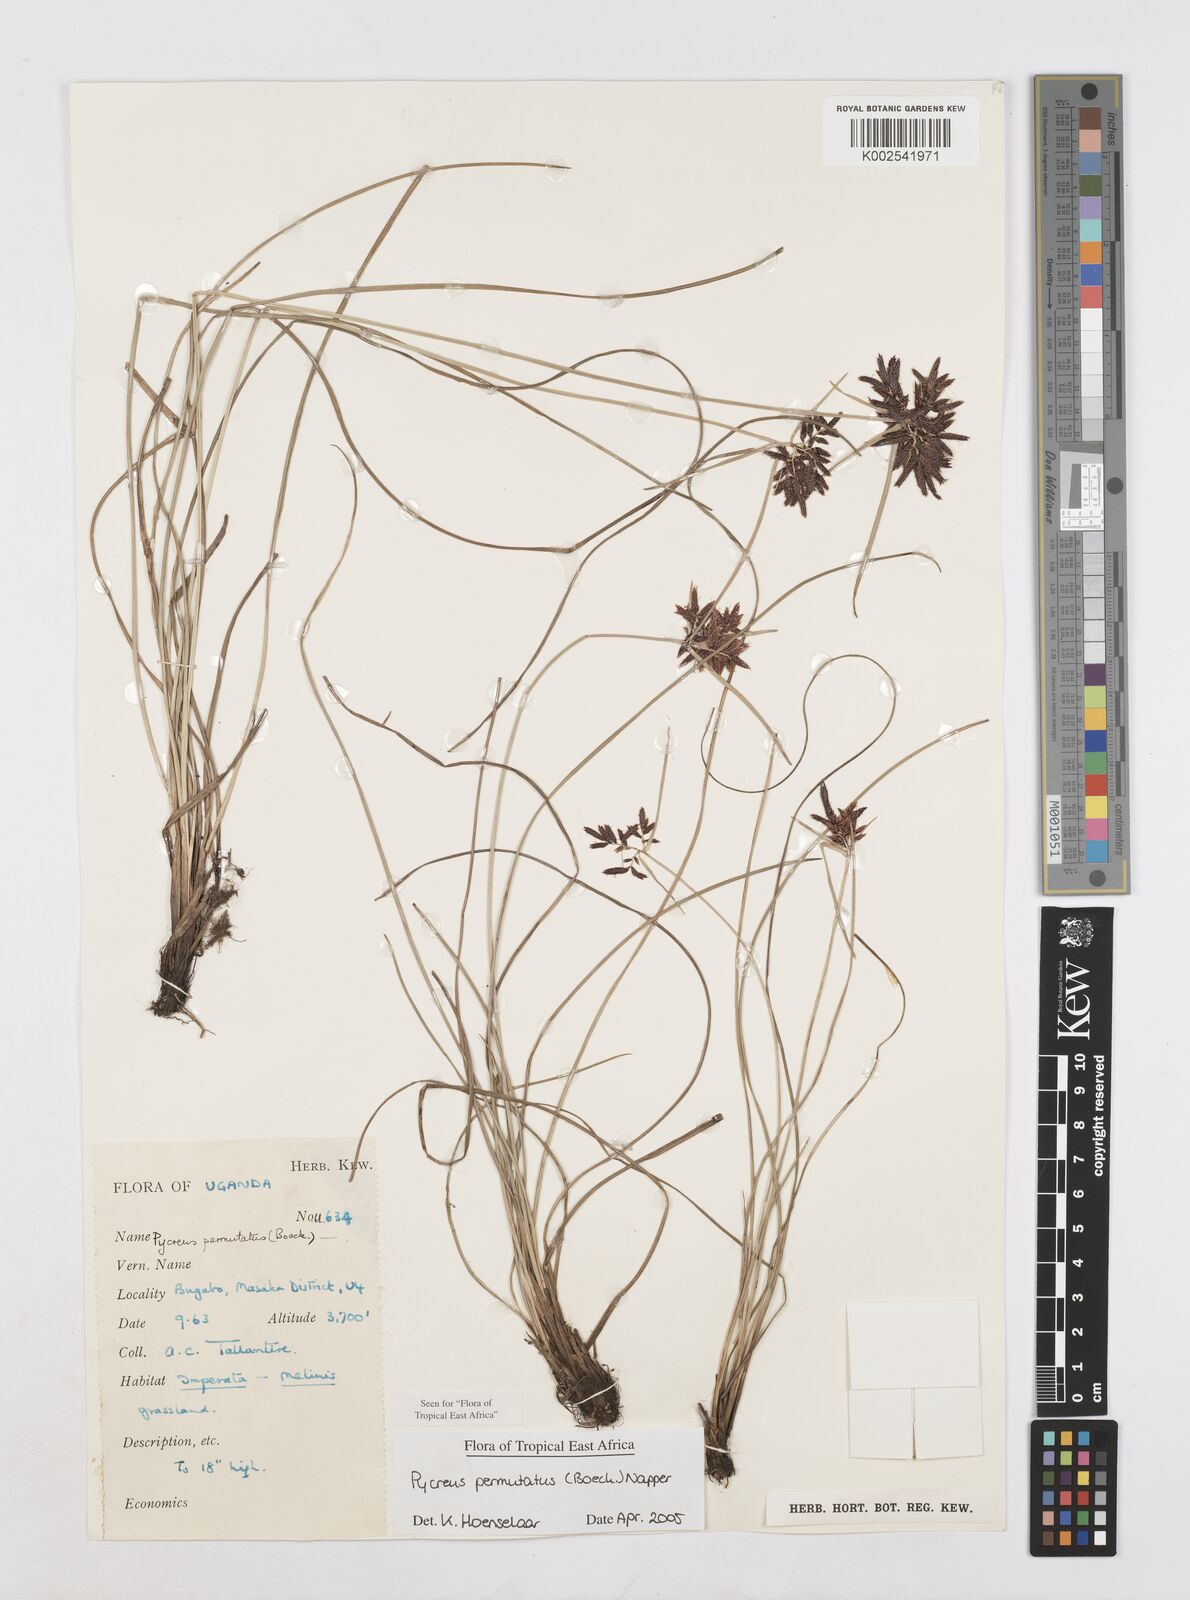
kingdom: Plantae
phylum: Tracheophyta
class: Liliopsida
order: Poales
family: Cyperaceae
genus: Cyperus
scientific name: Cyperus nigricans
